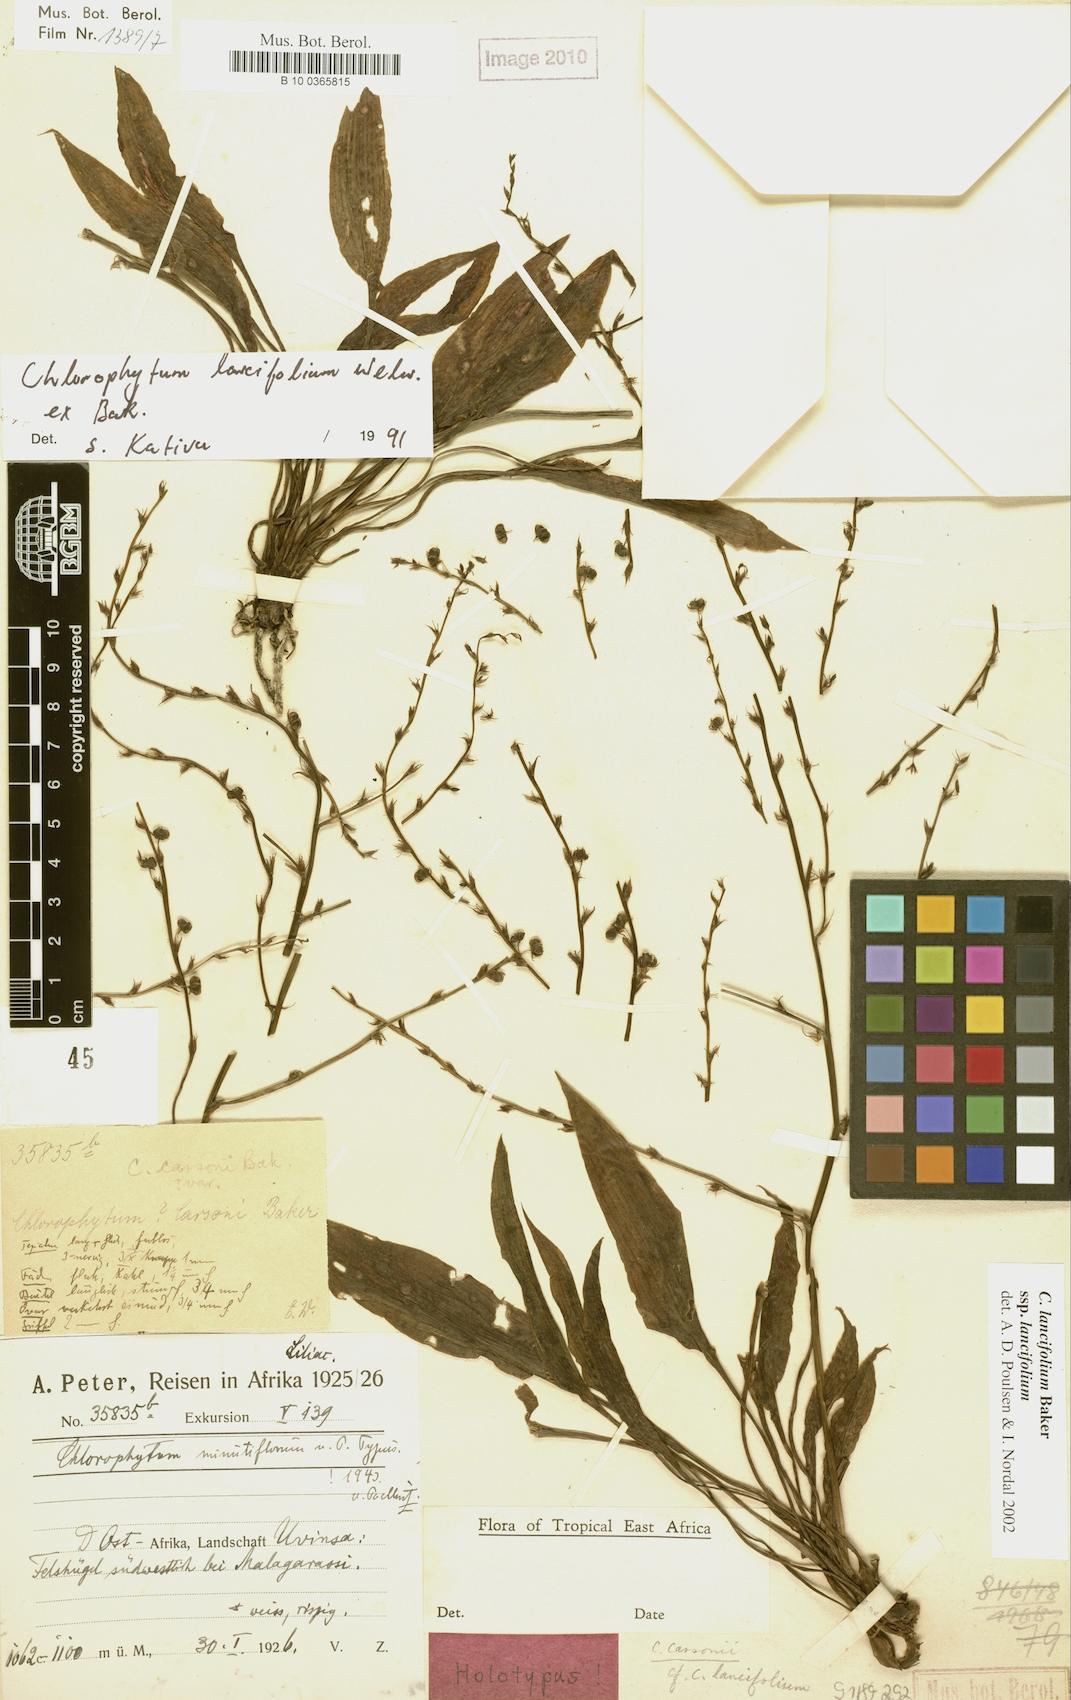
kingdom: Plantae
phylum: Tracheophyta
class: Liliopsida
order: Asparagales
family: Asparagaceae
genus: Chlorophytum
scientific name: Chlorophytum lancifolium
